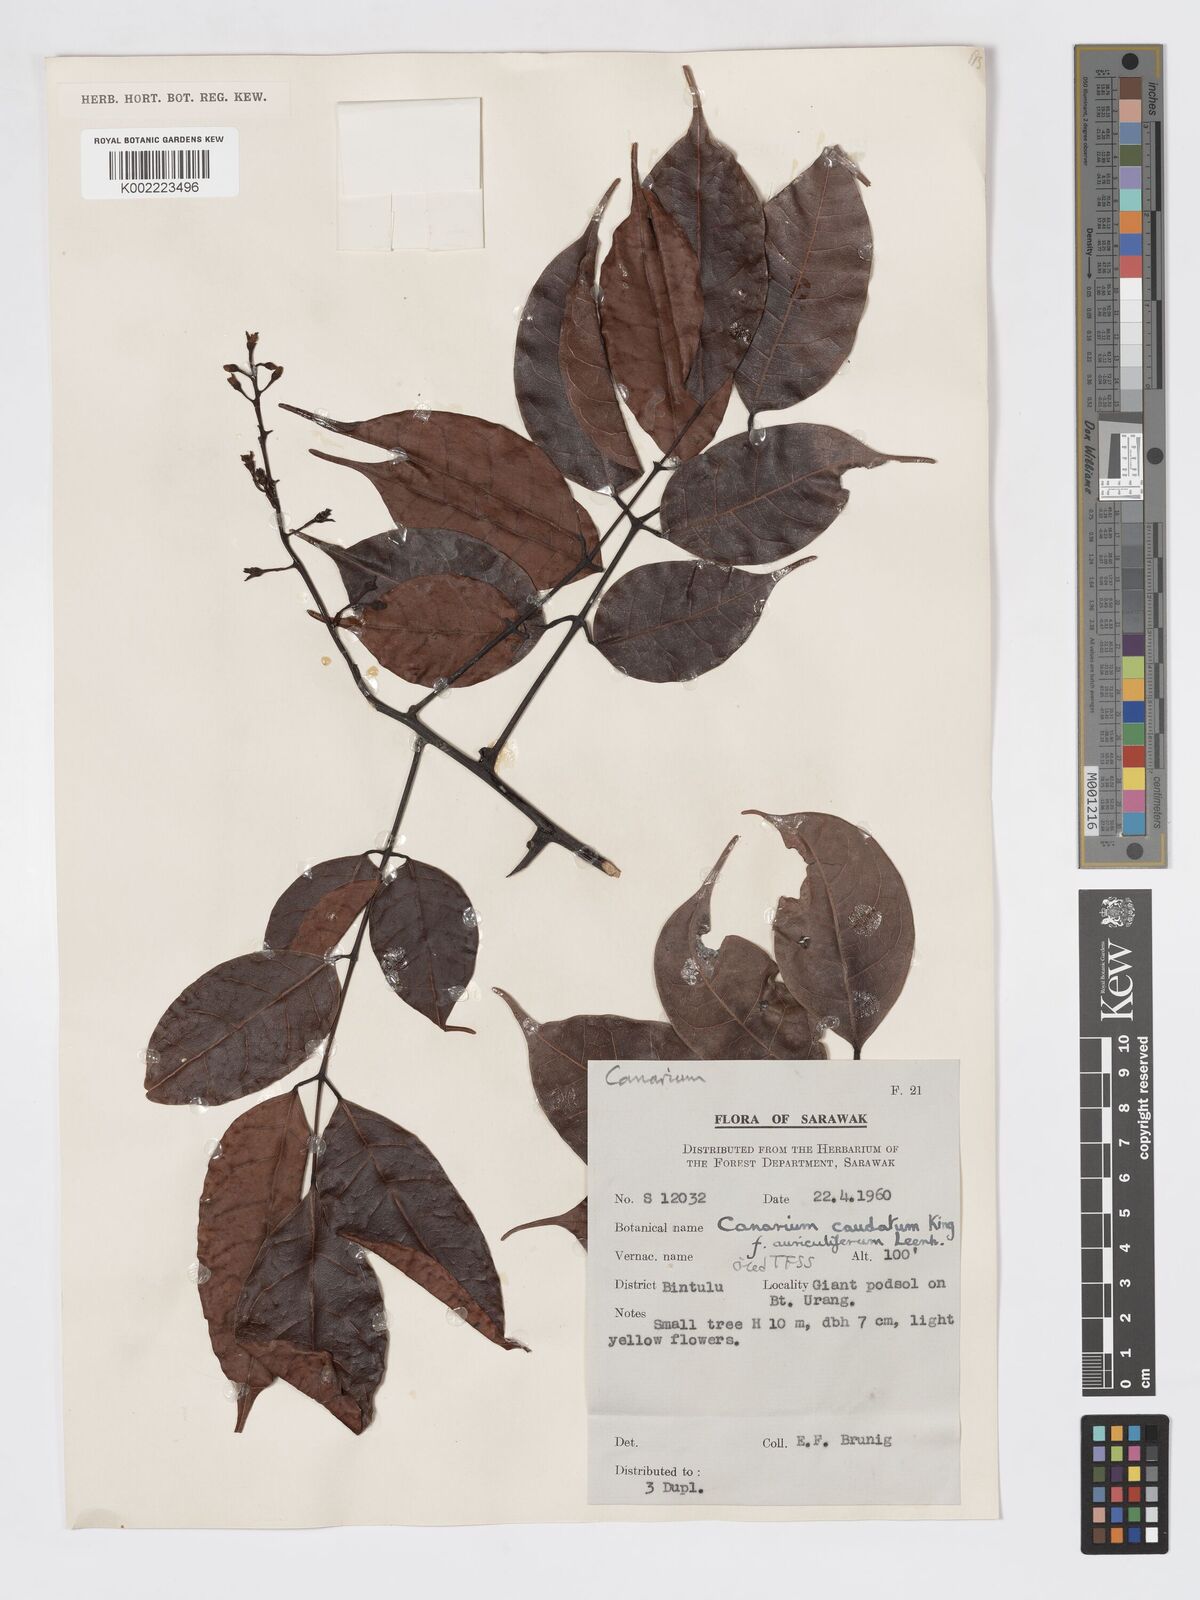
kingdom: Plantae
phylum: Tracheophyta
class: Magnoliopsida
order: Sapindales
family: Burseraceae
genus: Canarium
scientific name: Canarium caudatum
